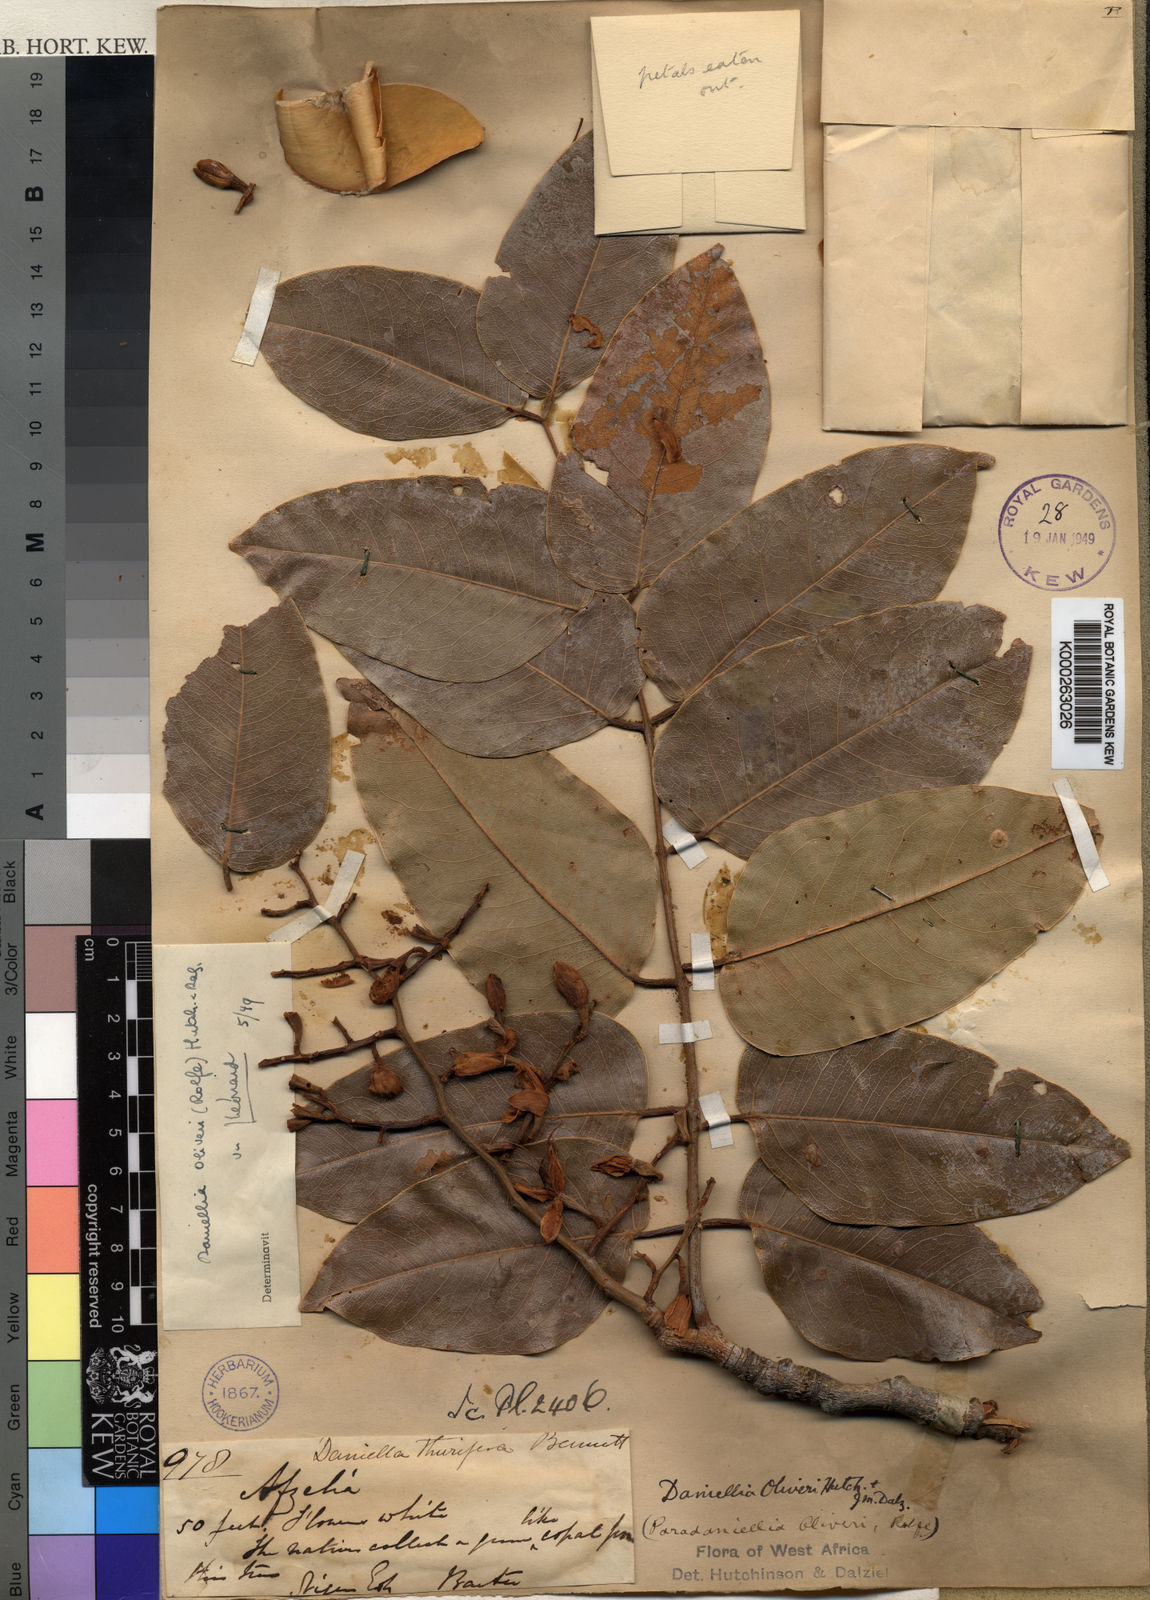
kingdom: Plantae
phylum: Tracheophyta
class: Magnoliopsida
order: Fabales
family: Fabaceae
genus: Daniellia
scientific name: Daniellia
